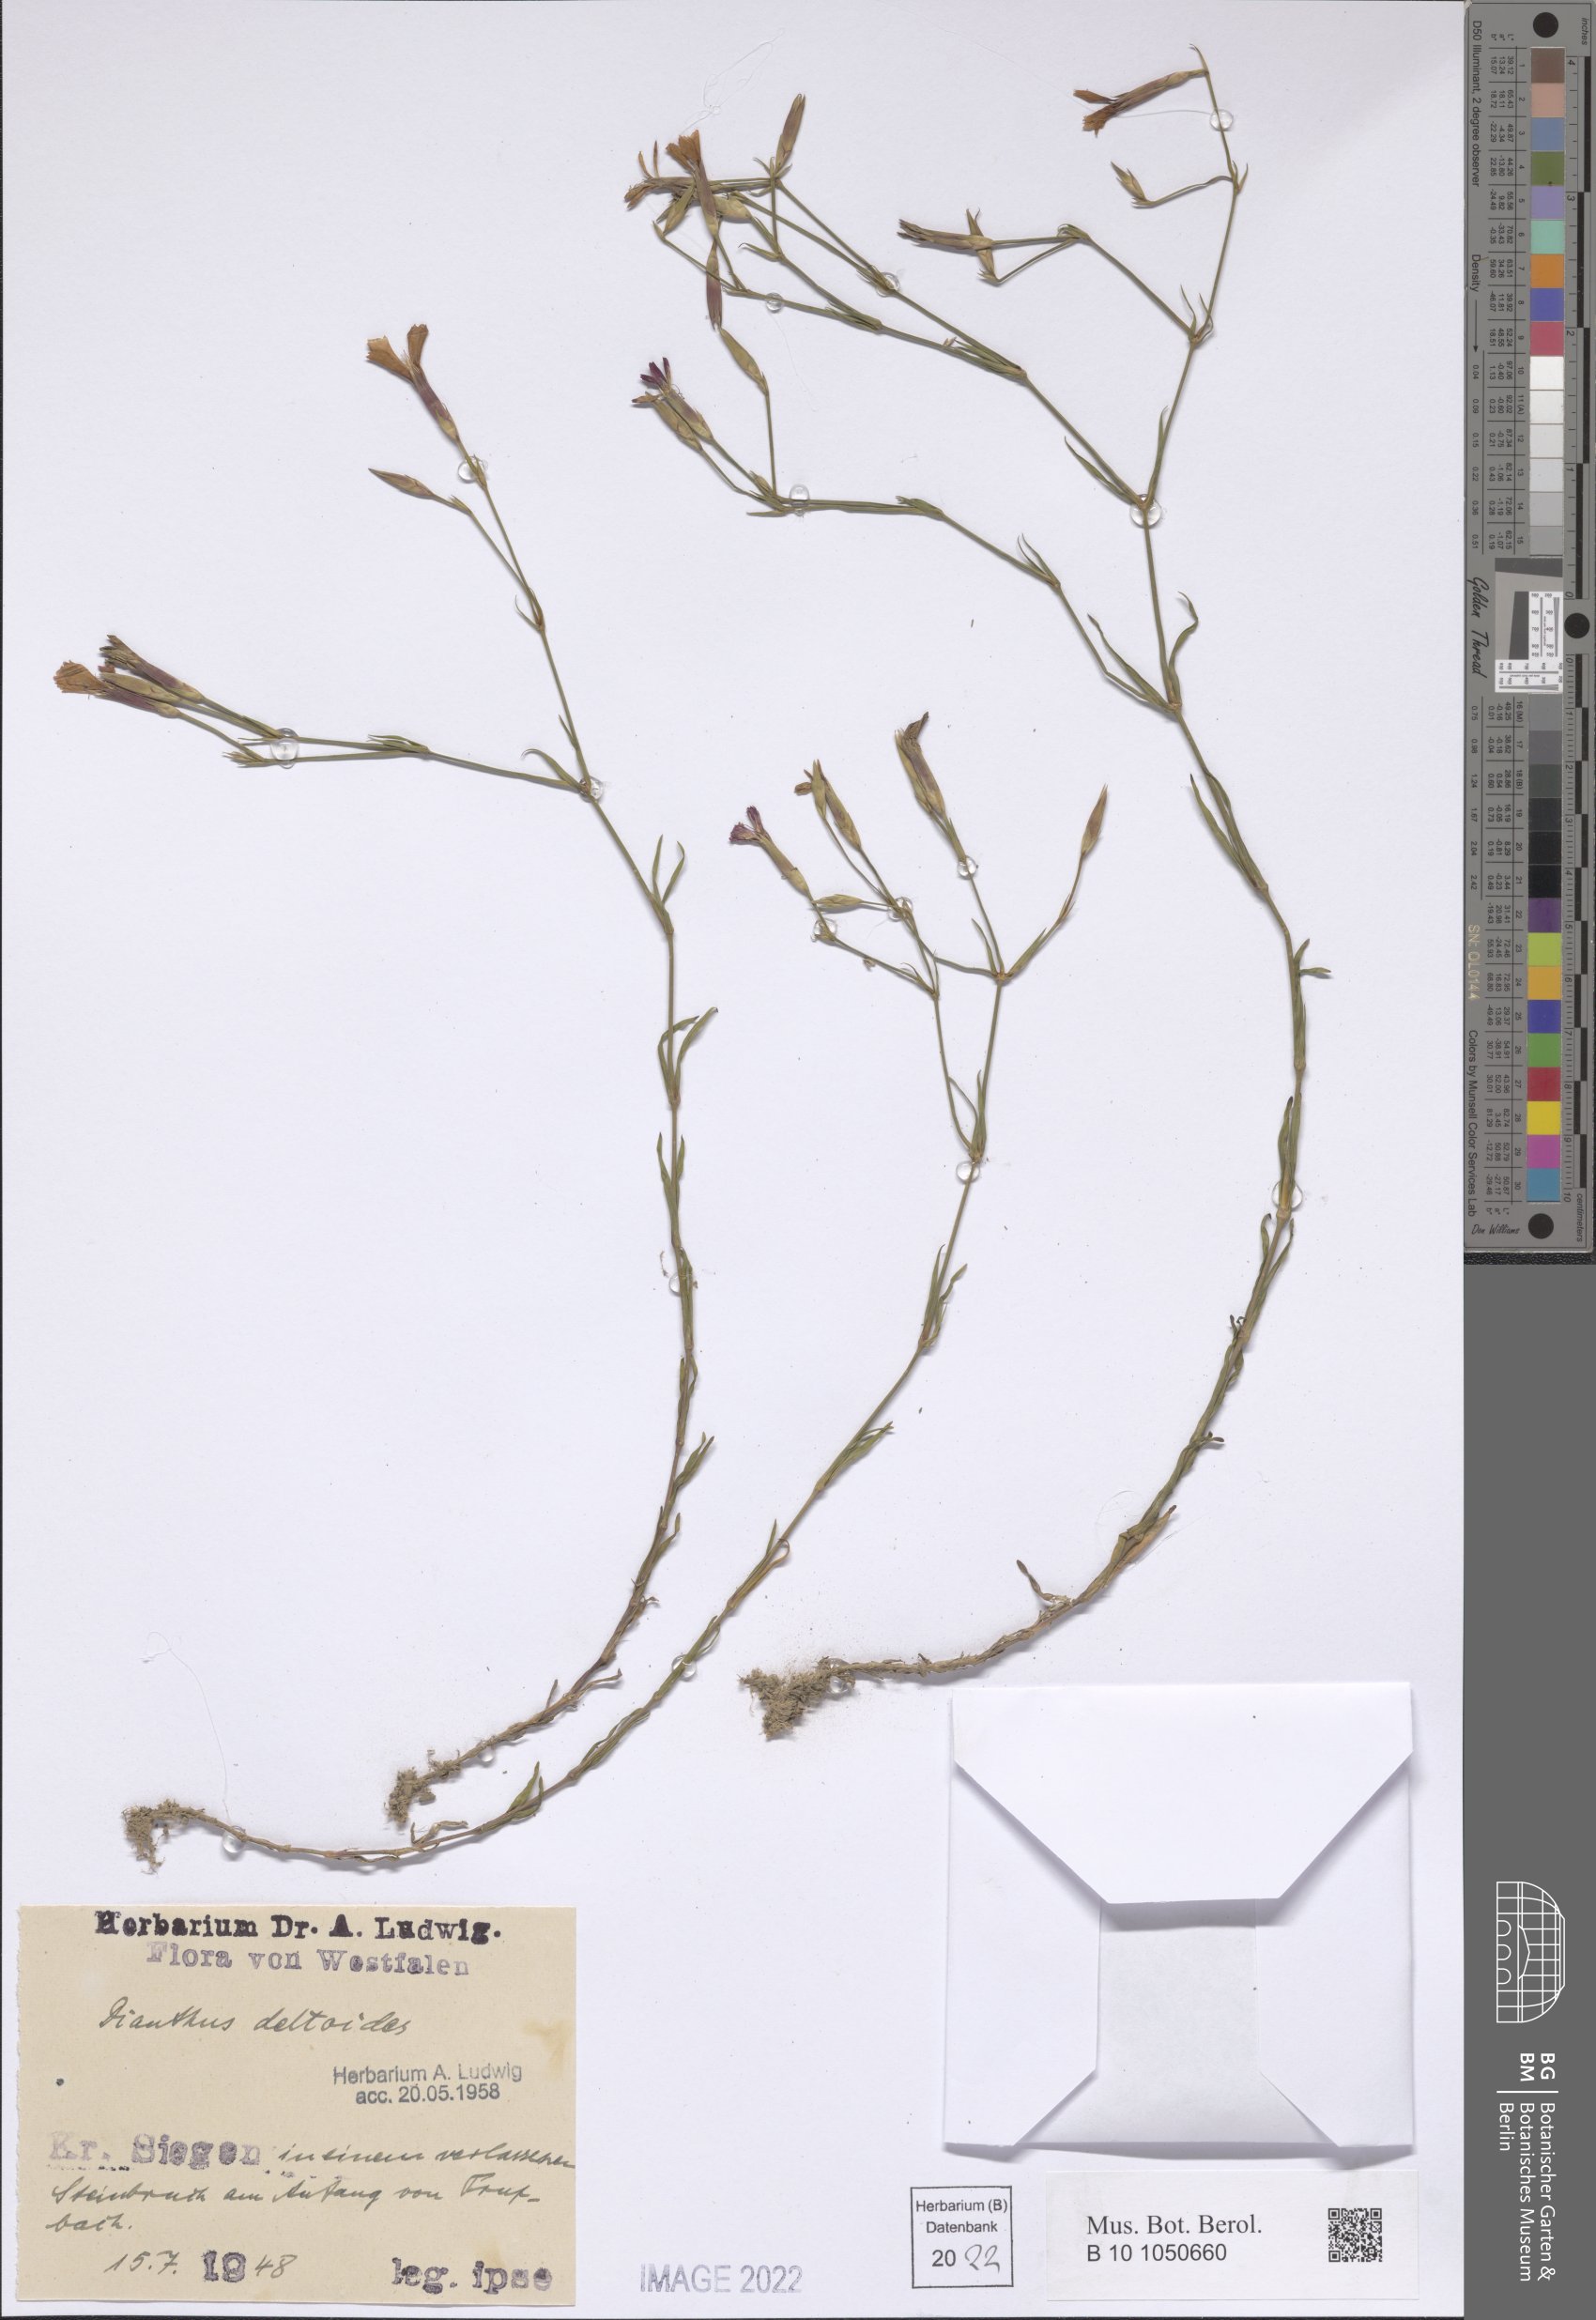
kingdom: Plantae
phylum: Tracheophyta
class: Magnoliopsida
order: Caryophyllales
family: Caryophyllaceae
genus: Dianthus
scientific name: Dianthus deltoides
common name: Maiden pink
